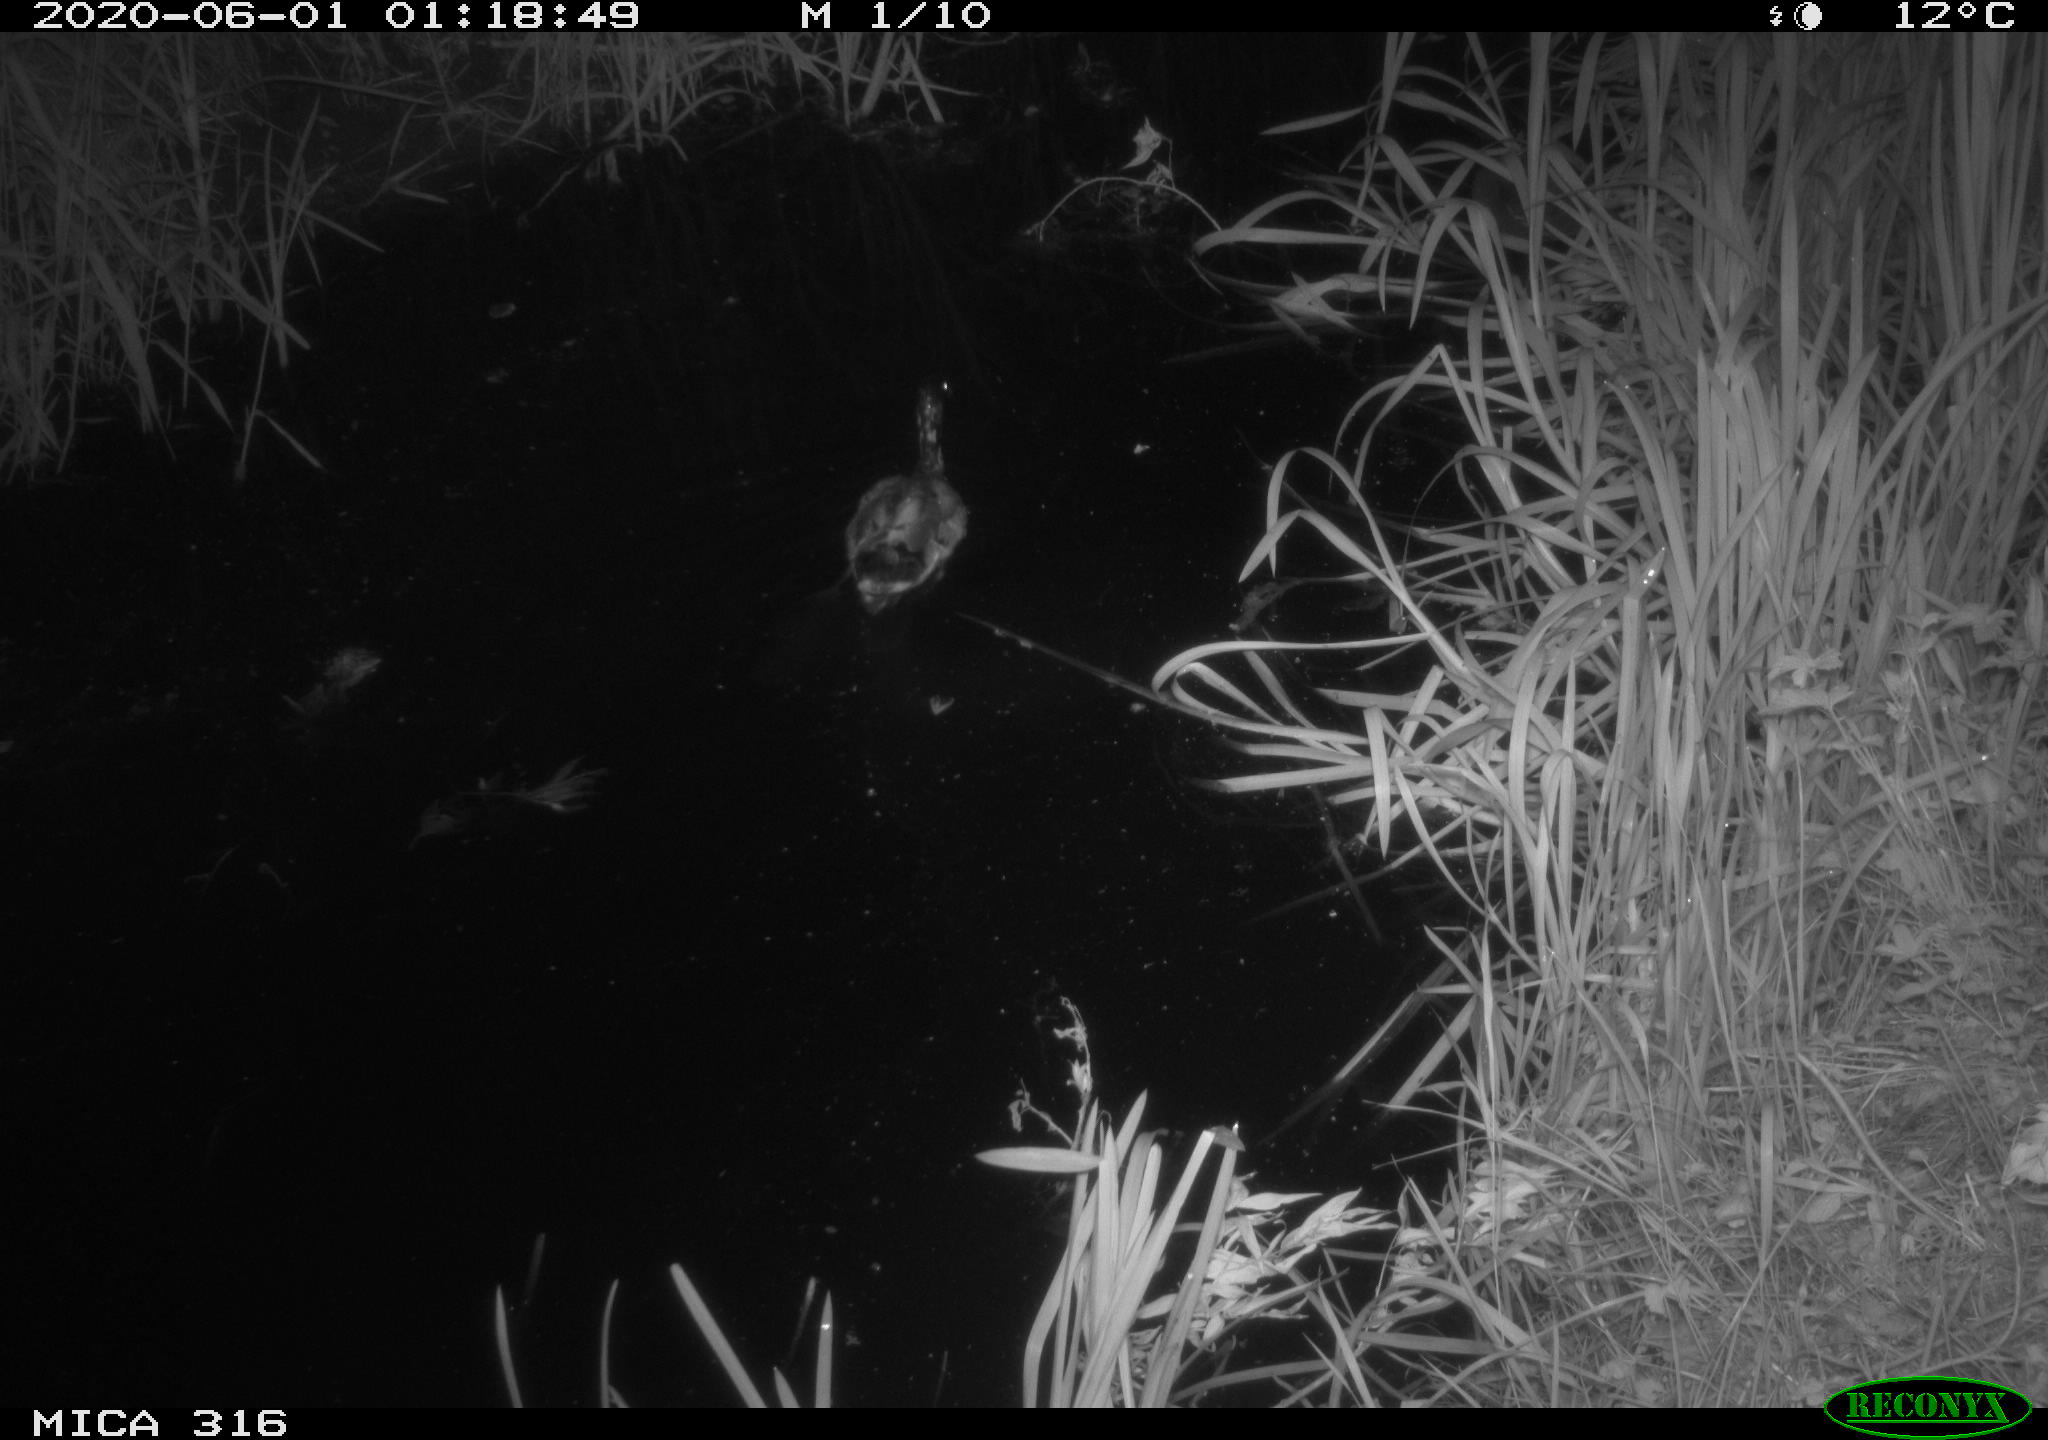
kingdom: Animalia
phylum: Chordata
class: Aves
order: Anseriformes
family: Anatidae
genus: Anas
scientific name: Anas platyrhynchos
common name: Mallard
